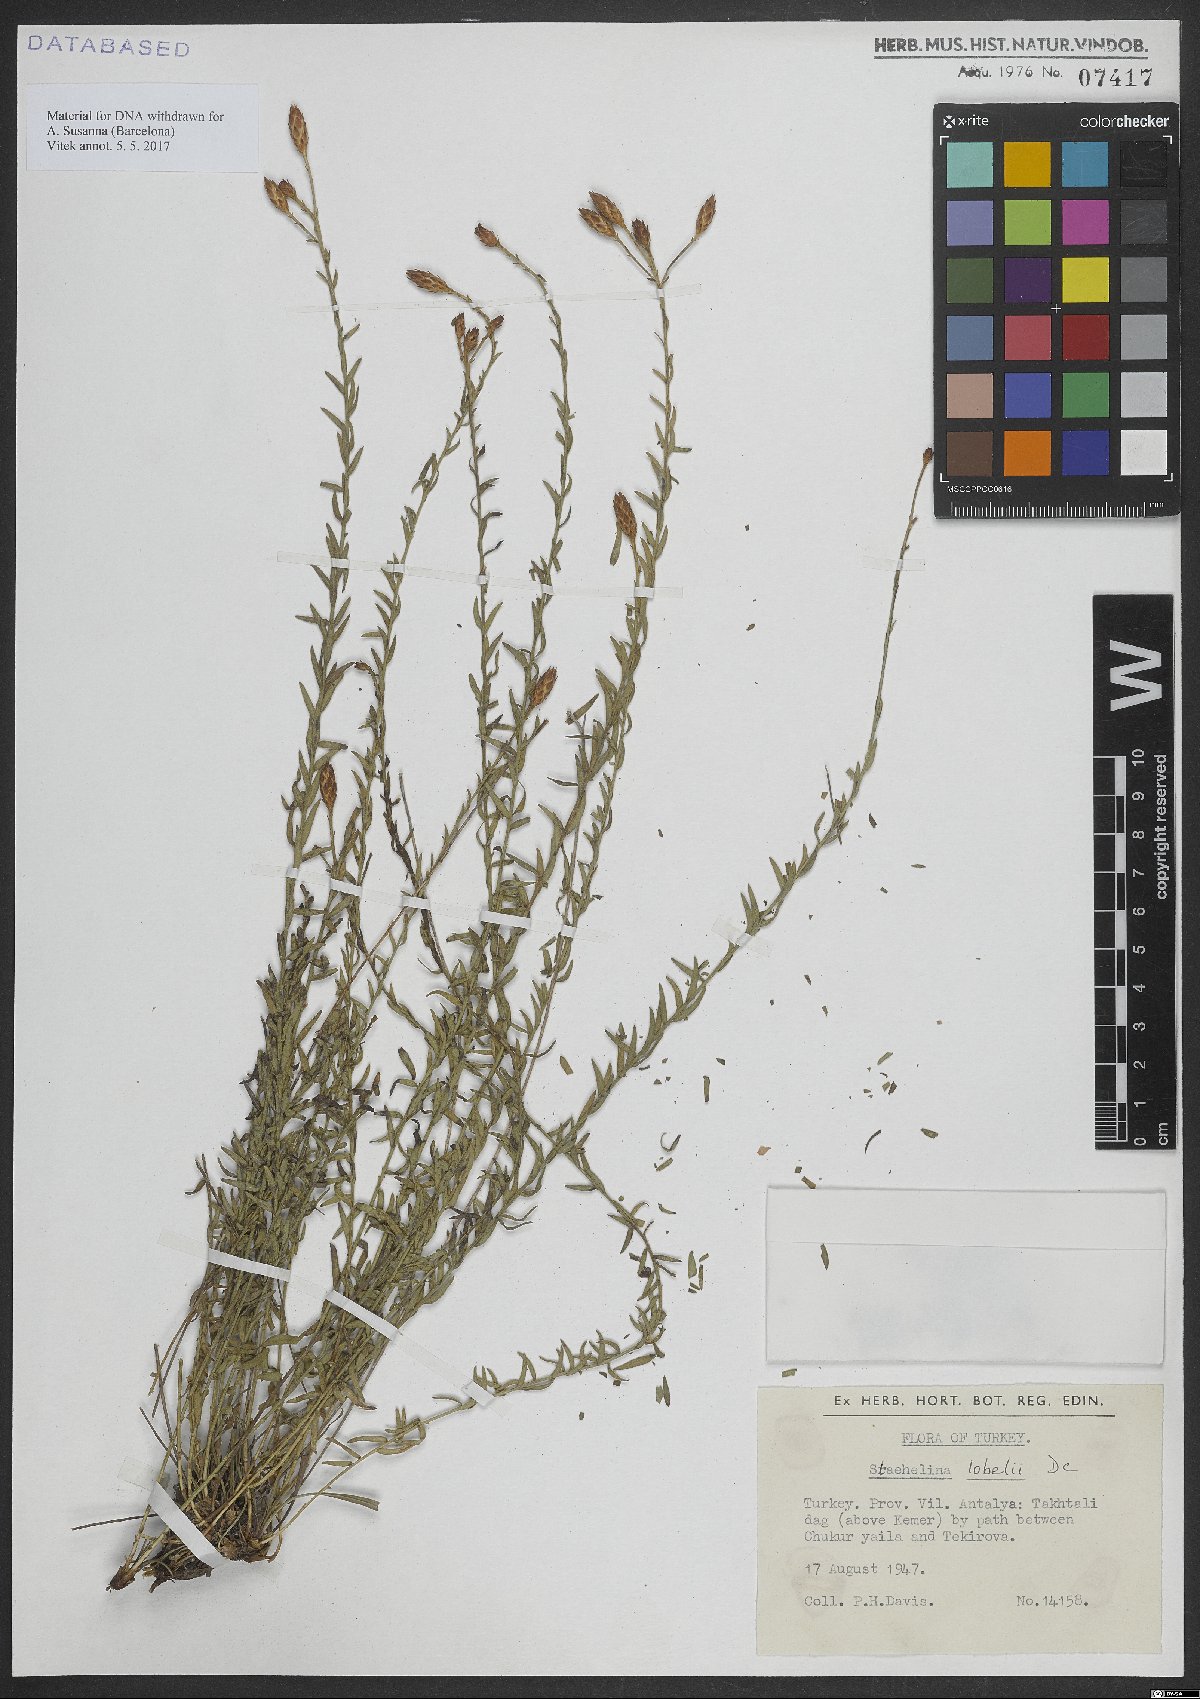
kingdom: Plantae
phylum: Tracheophyta
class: Magnoliopsida
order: Asterales
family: Asteraceae
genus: Staehelina
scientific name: Staehelina
